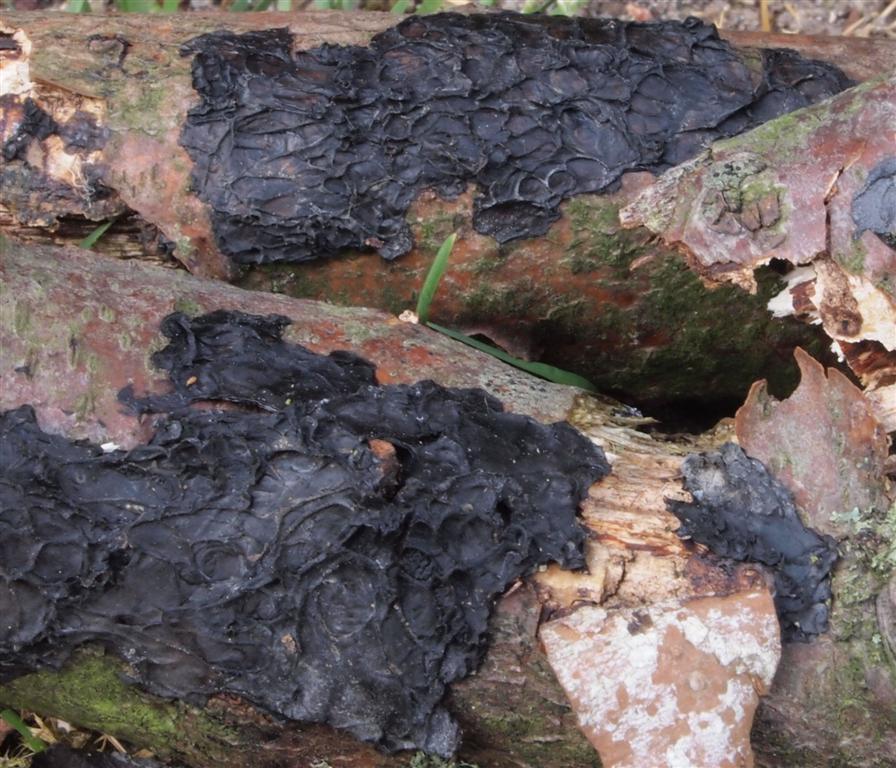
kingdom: Fungi
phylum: Basidiomycota
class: Agaricomycetes
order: Auriculariales
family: Auriculariaceae
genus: Exidia
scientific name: Exidia nigricans
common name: almindelig bævretop
